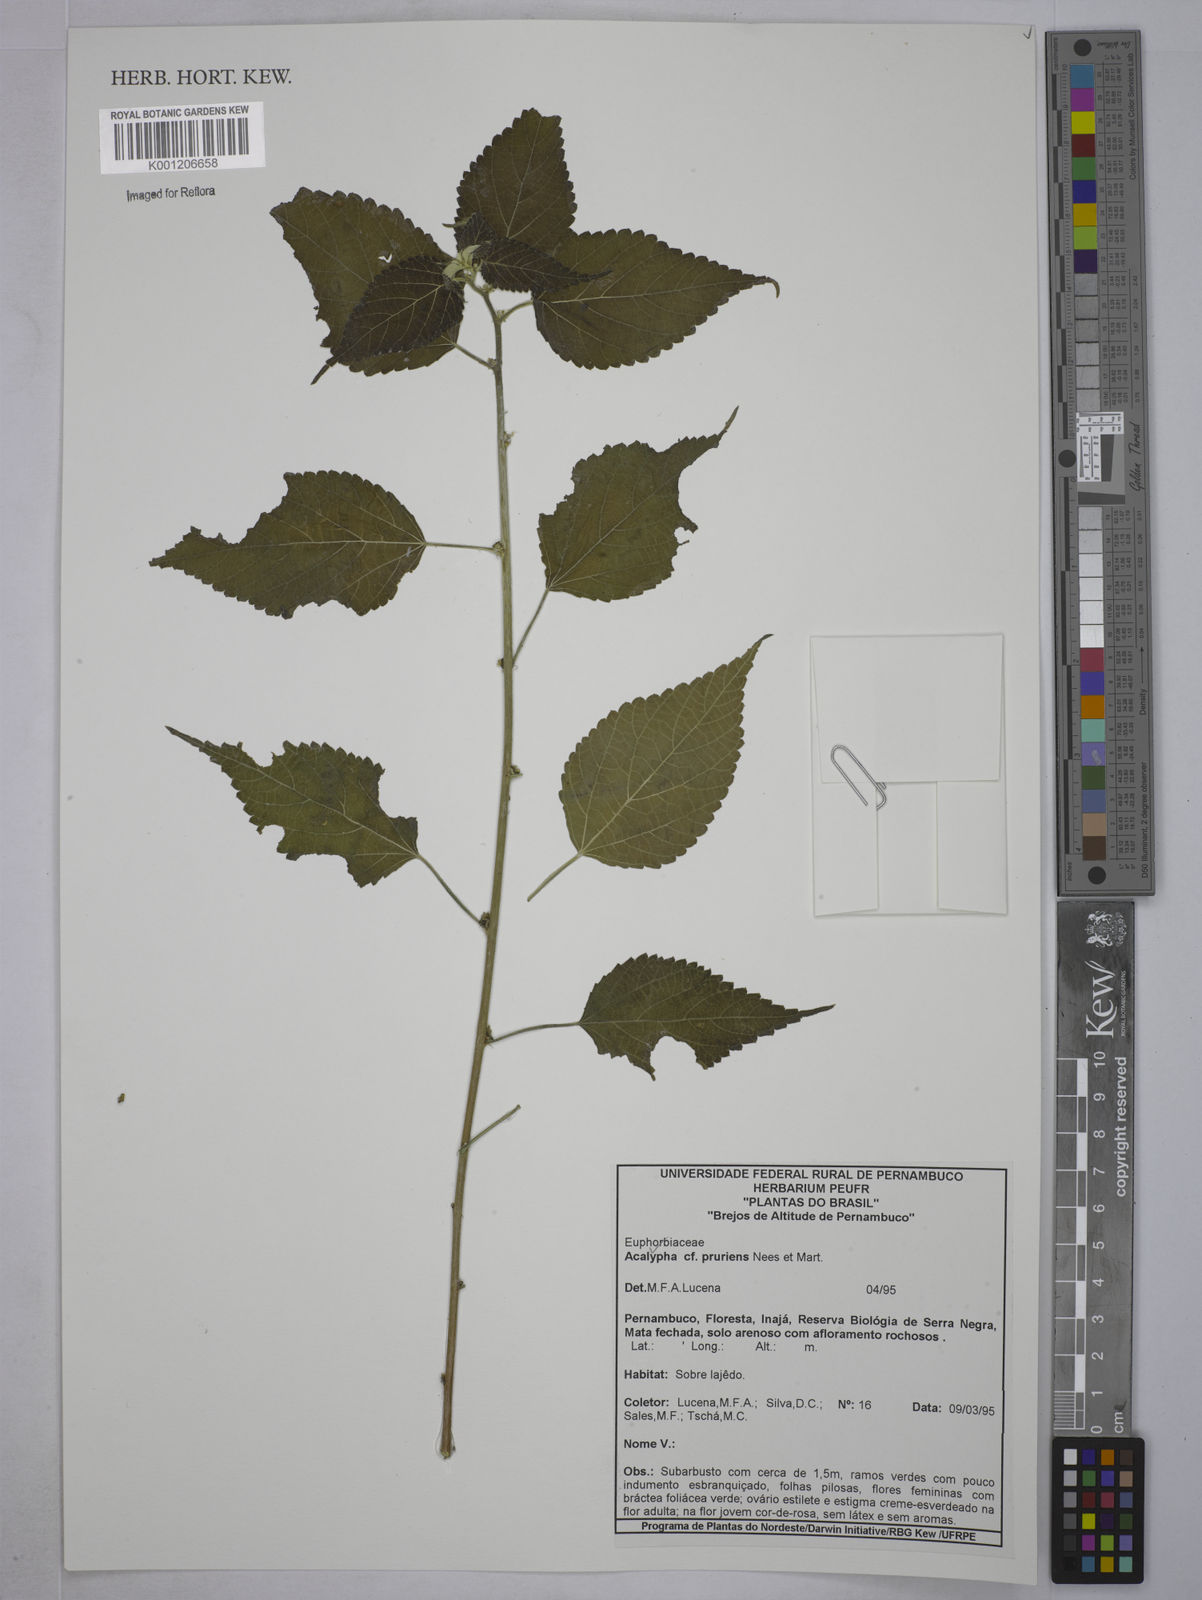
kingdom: Plantae
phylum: Tracheophyta
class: Magnoliopsida
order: Malpighiales
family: Euphorbiaceae
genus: Acalypha
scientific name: Acalypha pruriens
